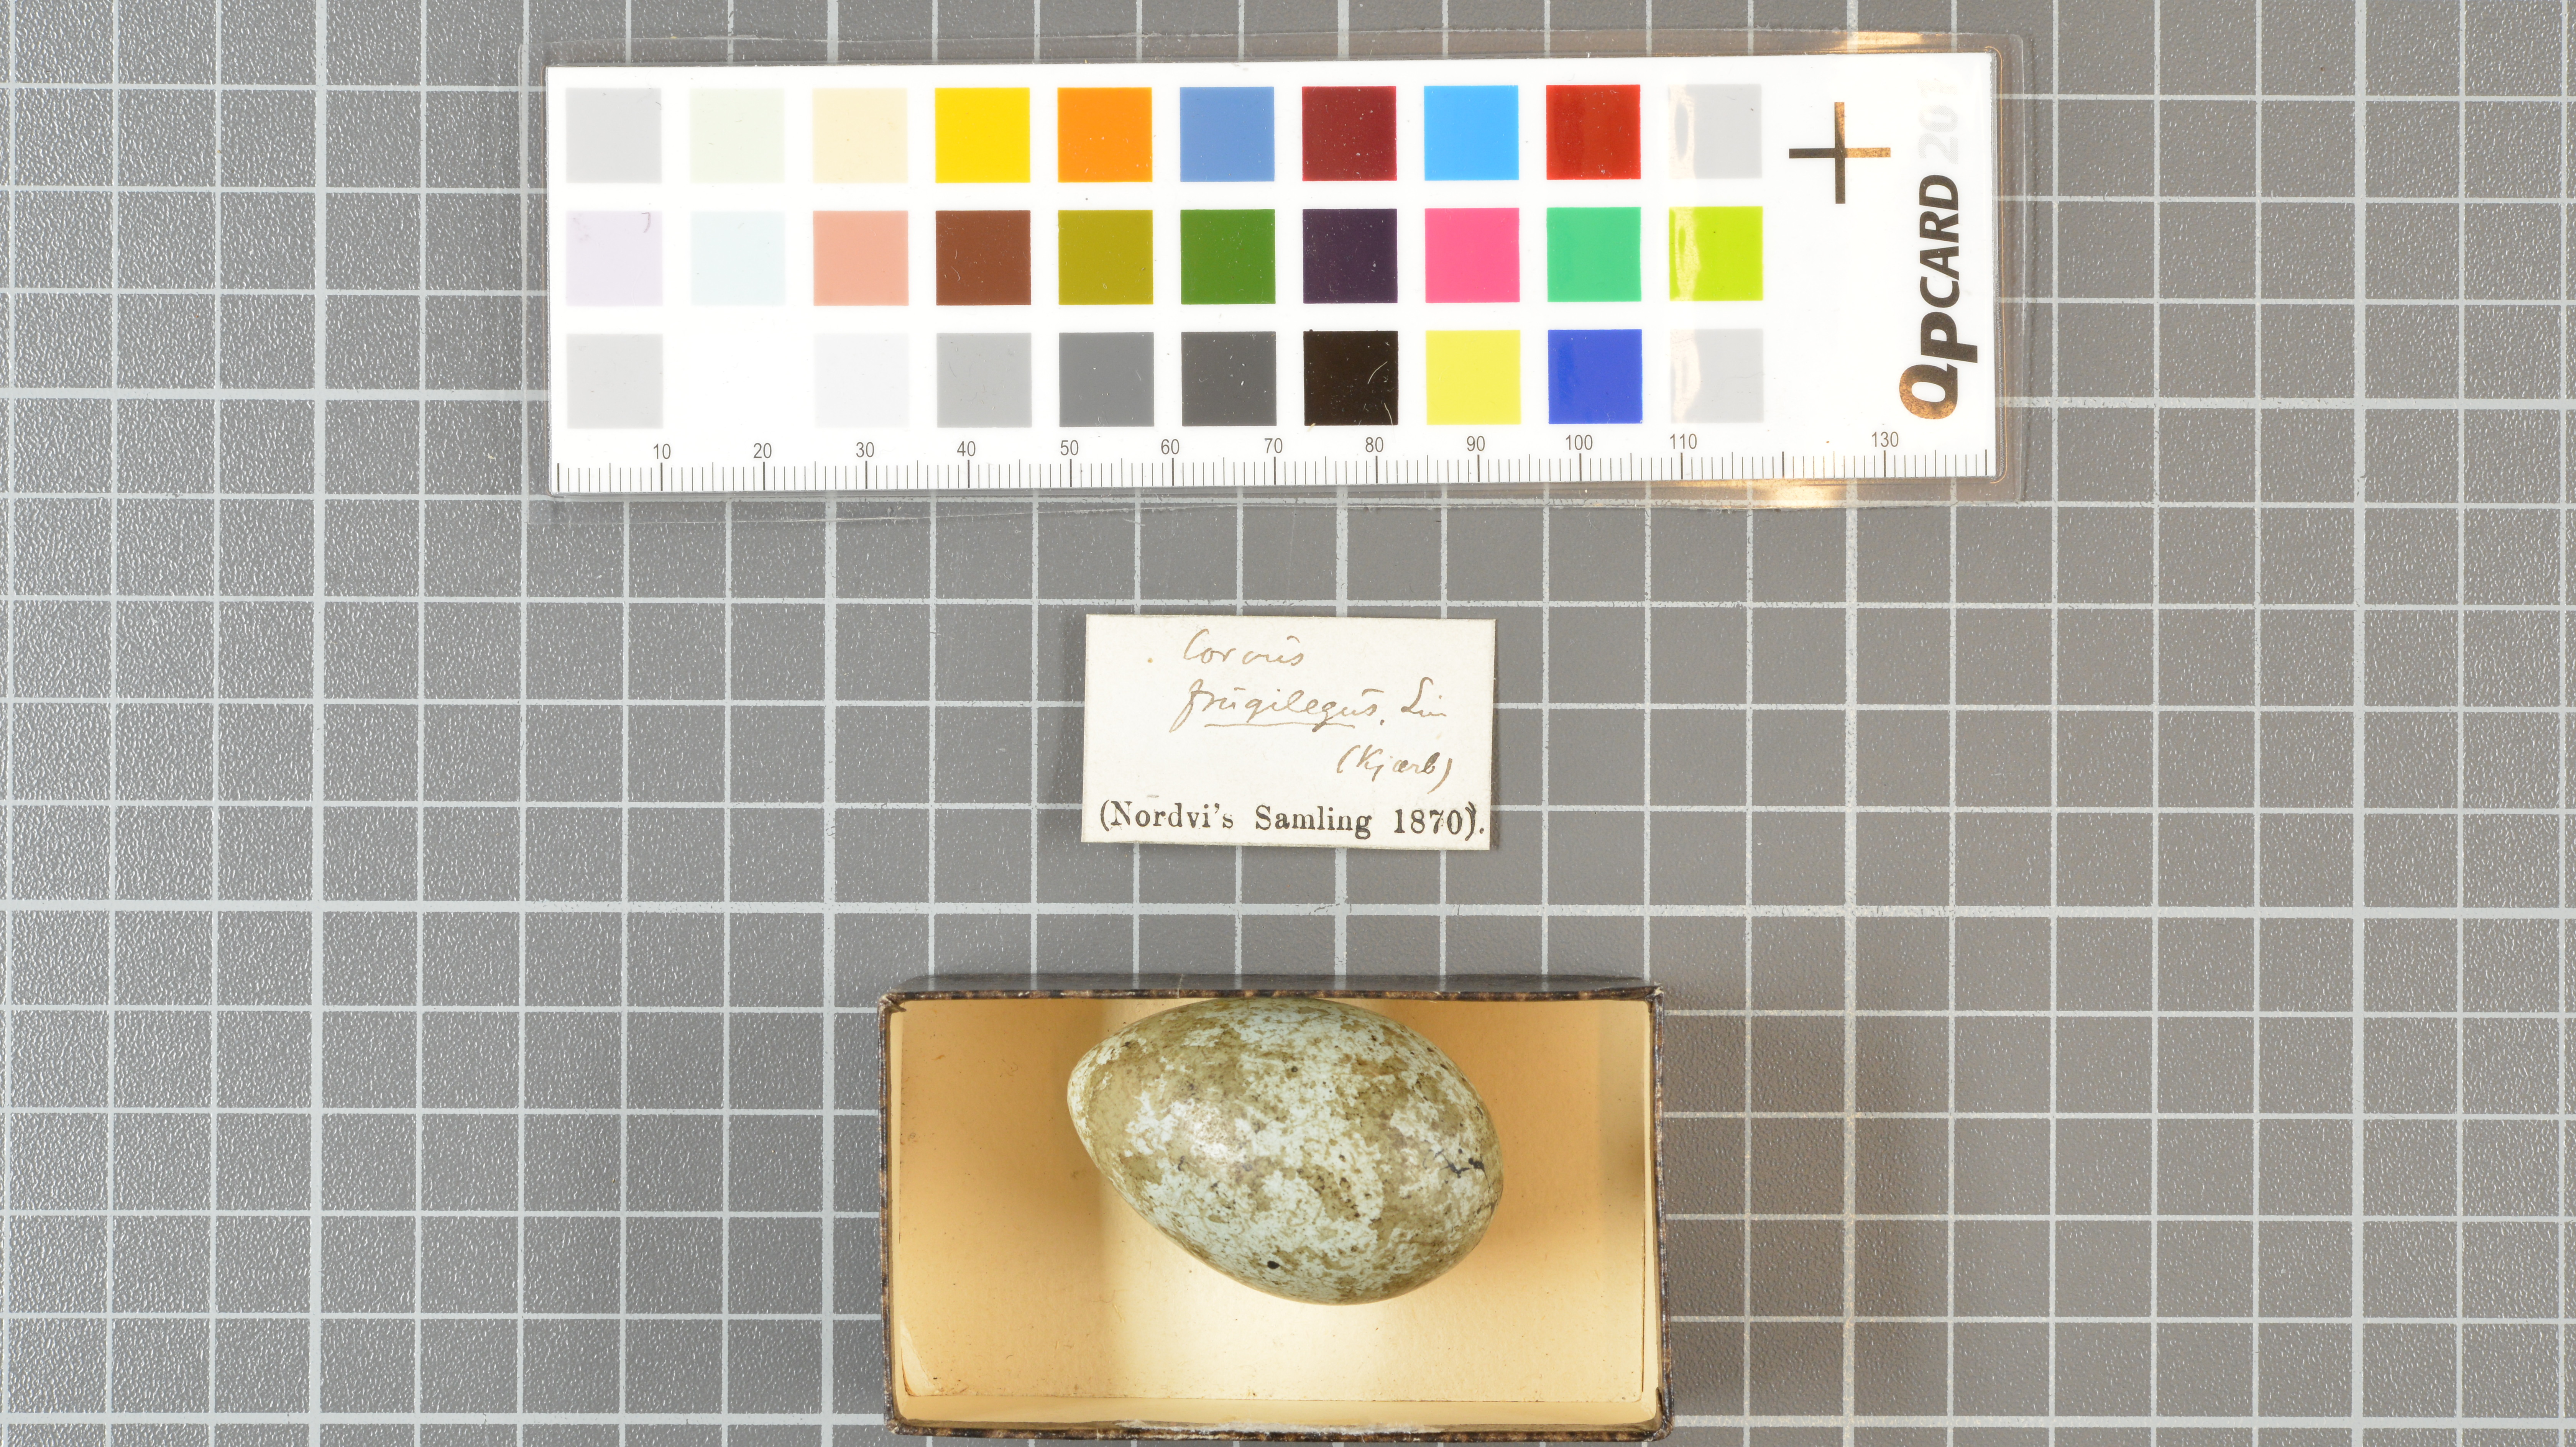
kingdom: Animalia
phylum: Chordata
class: Aves
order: Passeriformes
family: Corvidae
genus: Corvus
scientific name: Corvus frugilegus
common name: Rook
